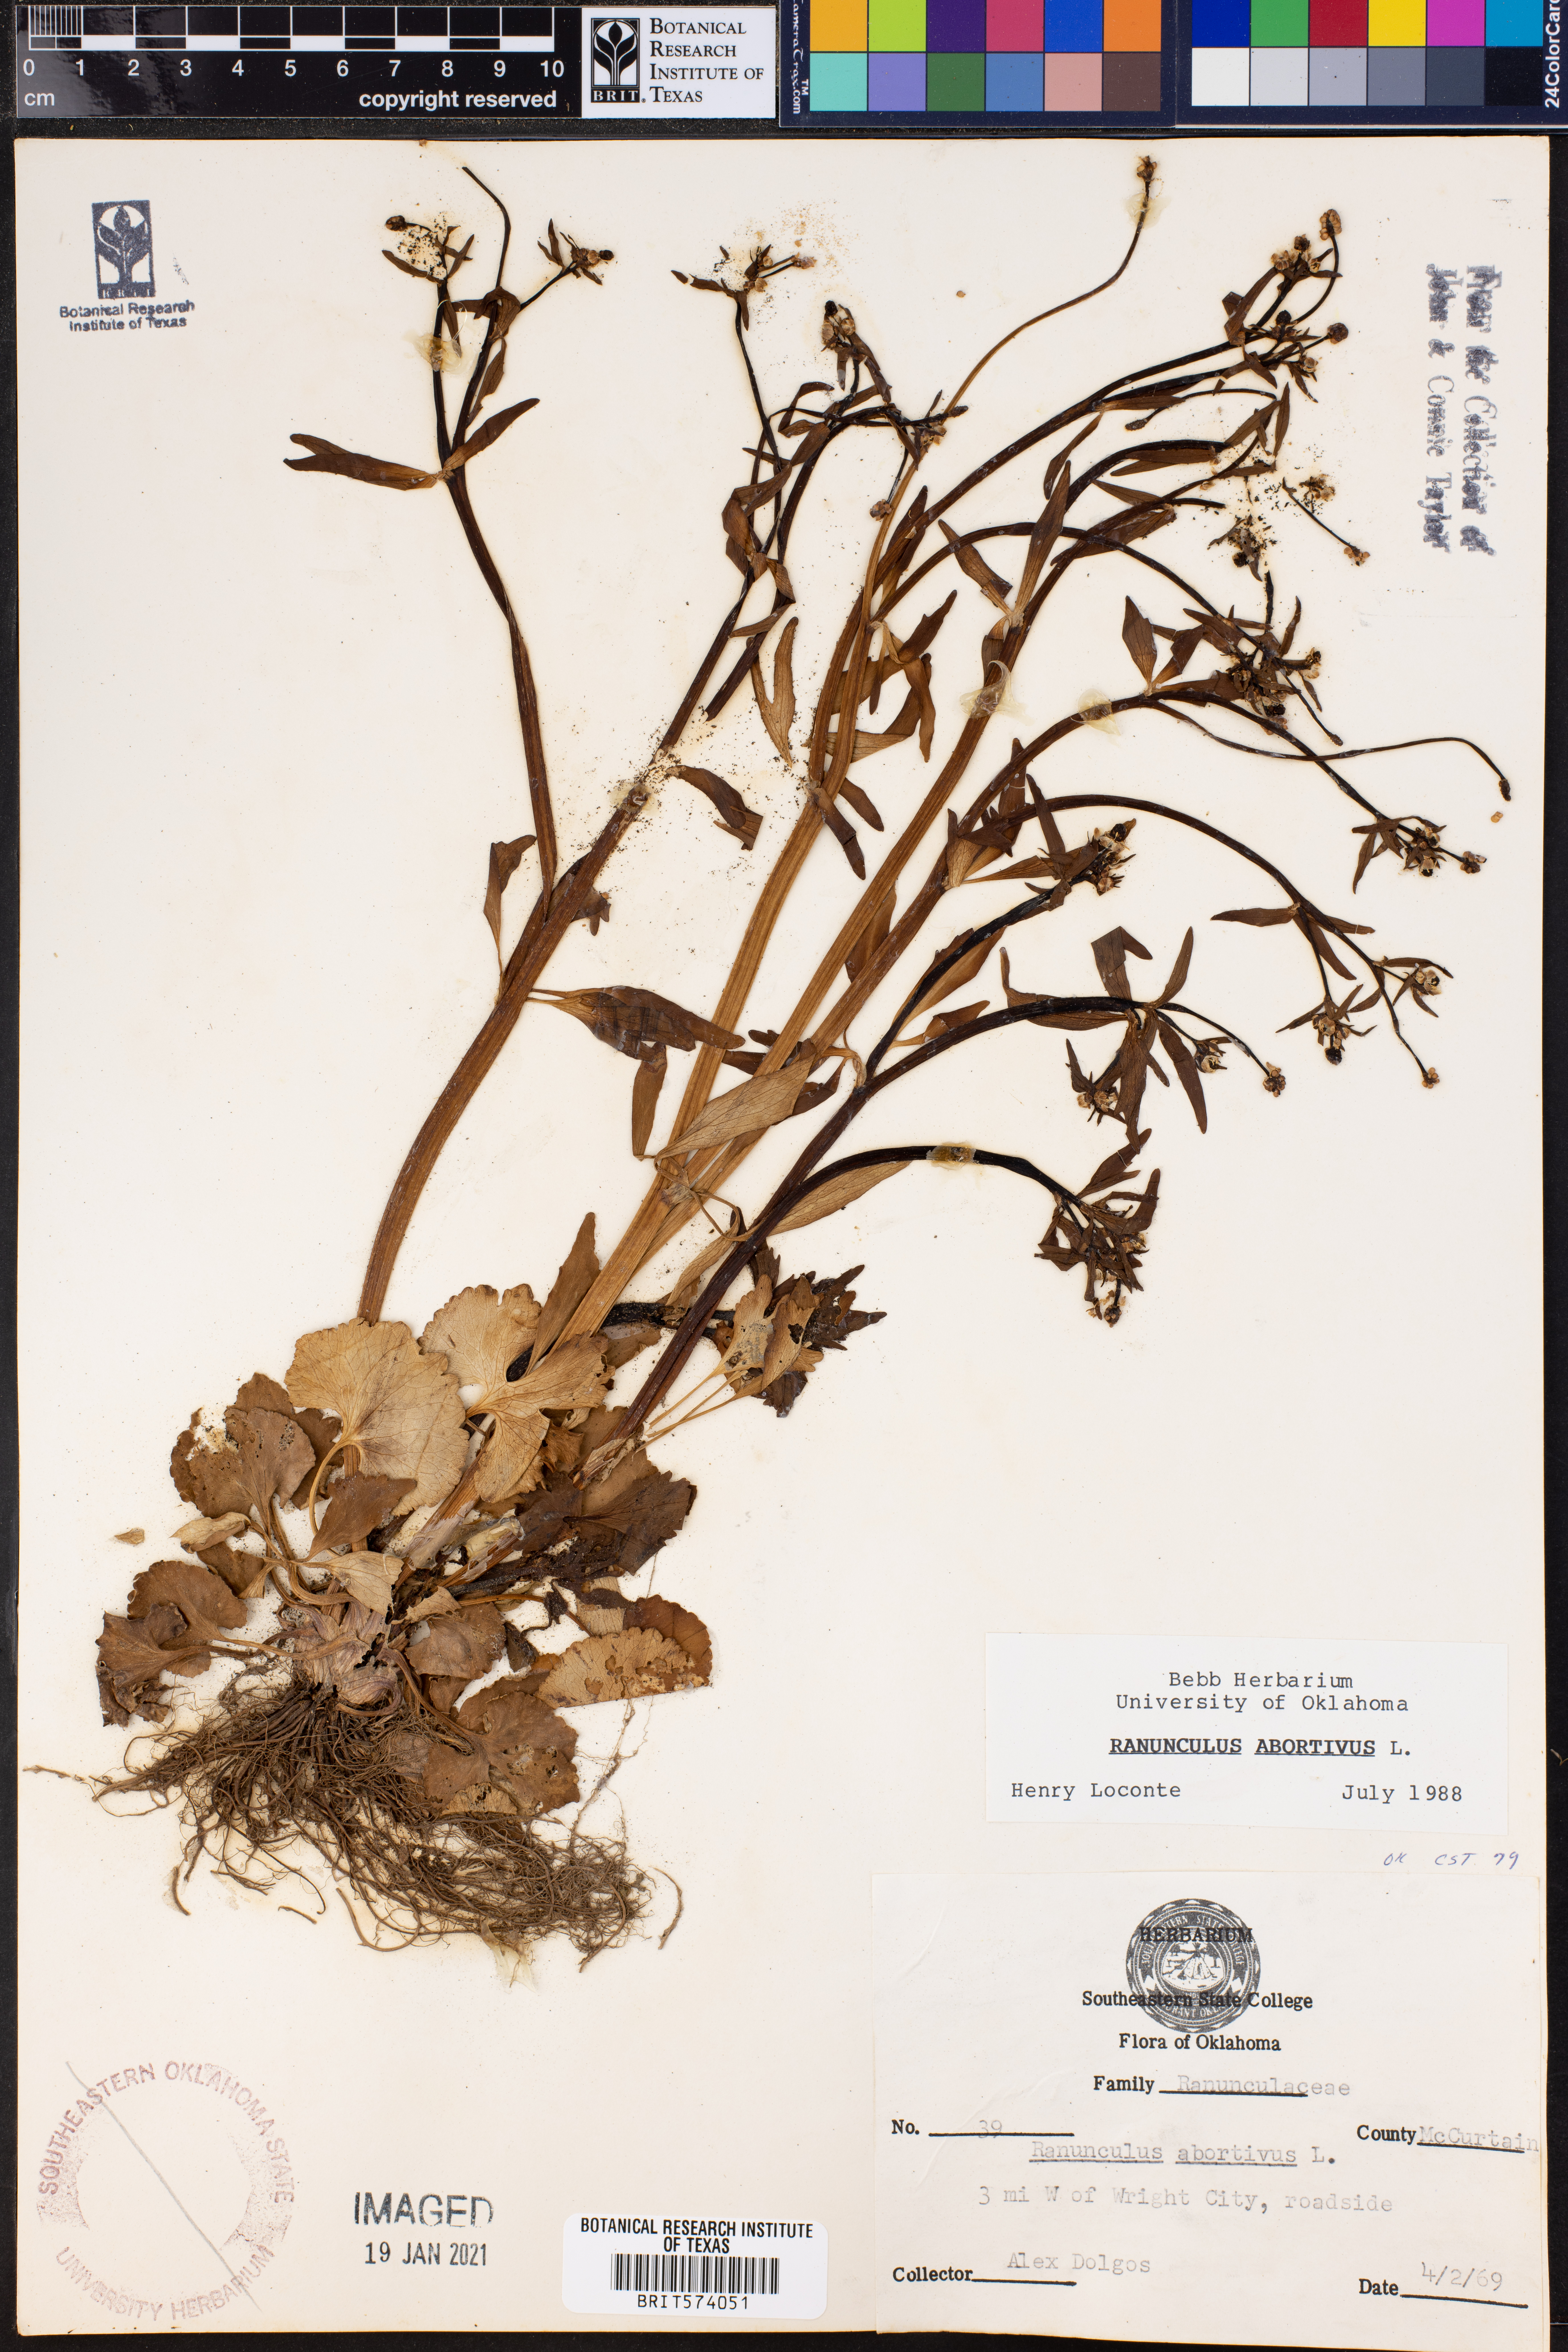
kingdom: Plantae
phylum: Tracheophyta
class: Magnoliopsida
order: Ranunculales
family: Ranunculaceae
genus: Ranunculus
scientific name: Ranunculus abortivus
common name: Early wood buttercup
